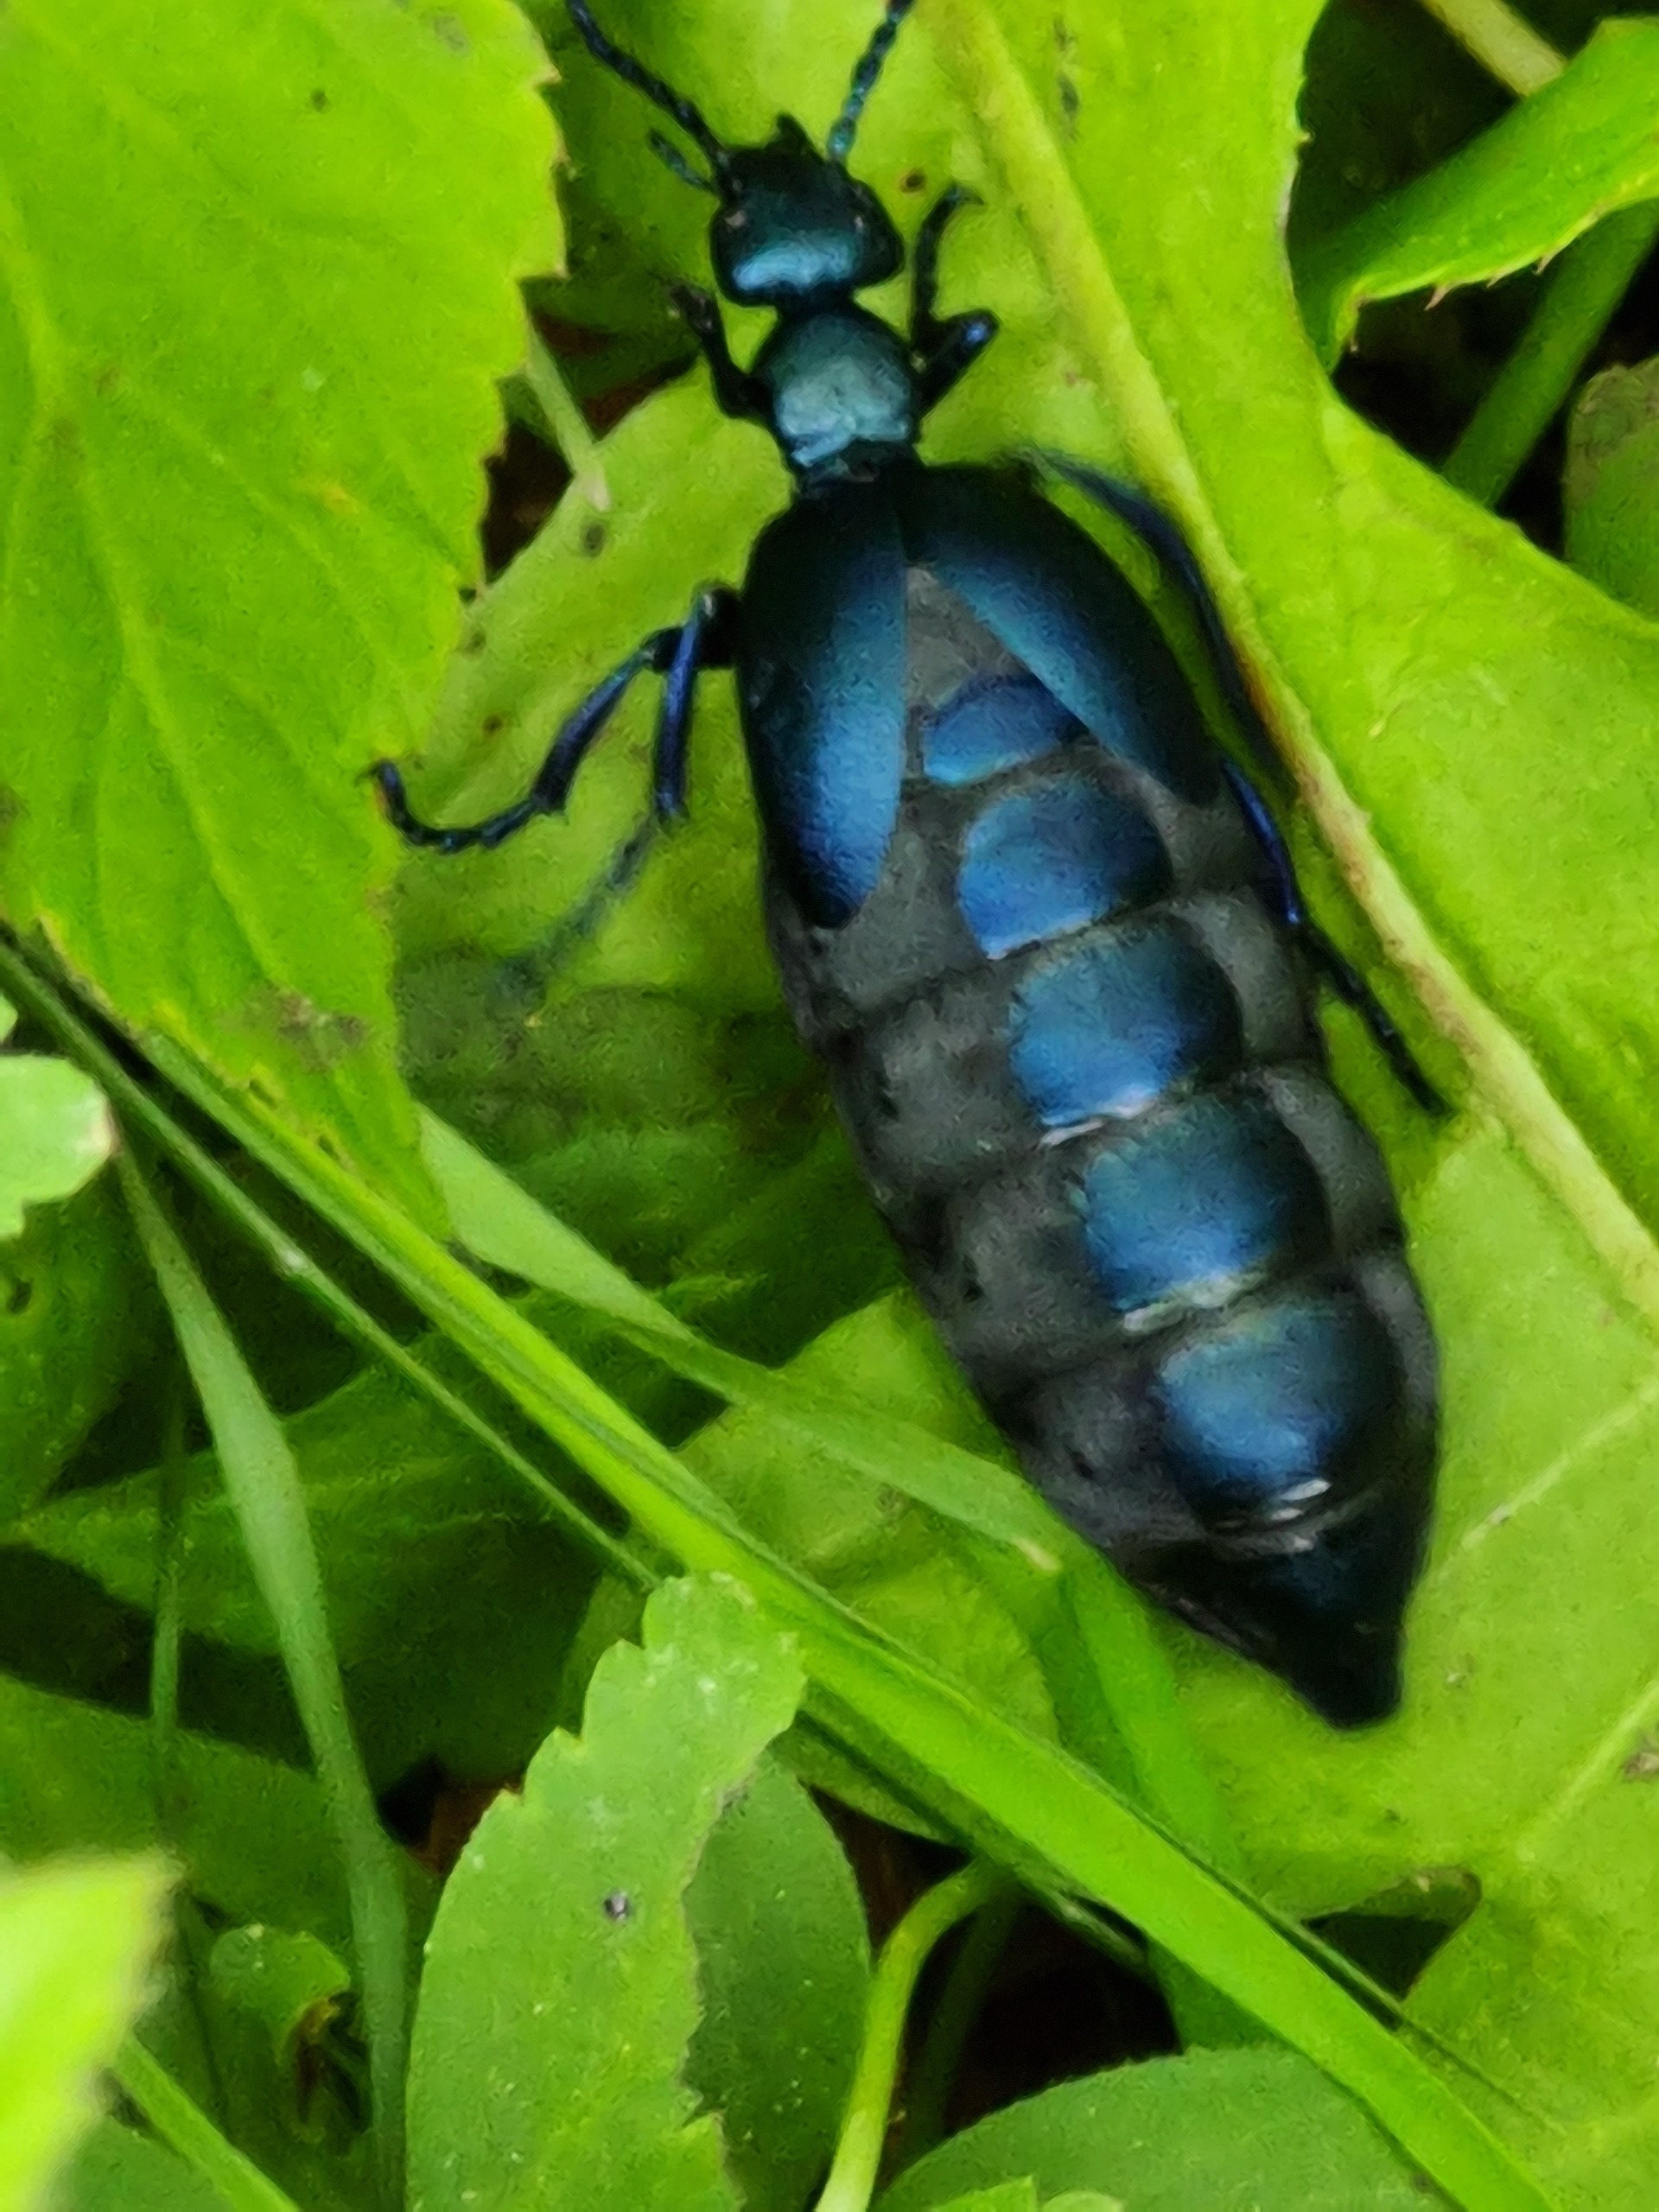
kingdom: Animalia
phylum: Arthropoda
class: Insecta
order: Coleoptera
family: Meloidae
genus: Meloe
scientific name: Meloe violaceus
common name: Blå oliebille
